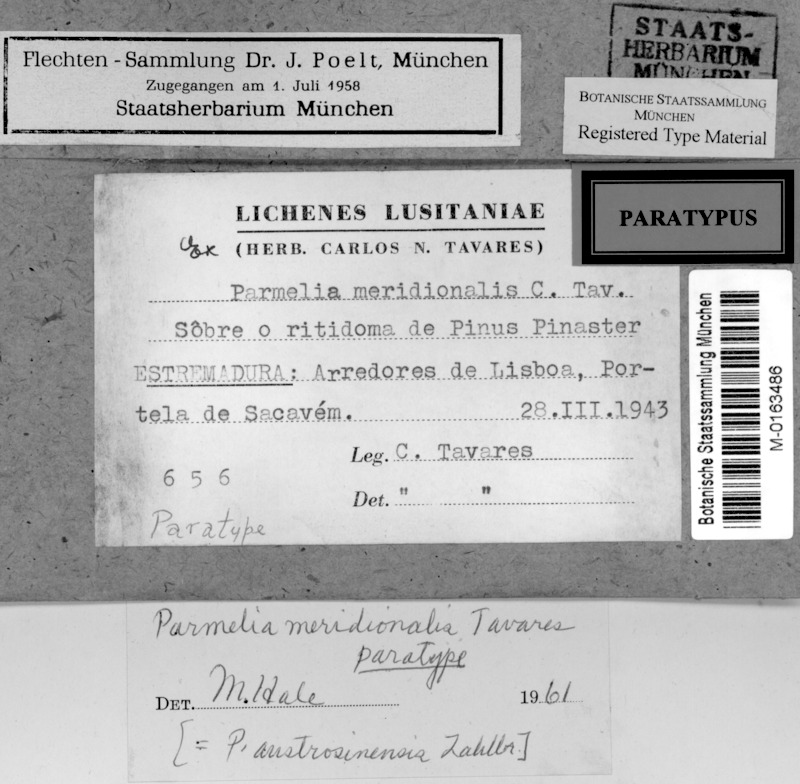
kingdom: Fungi
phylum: Ascomycota
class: Lecanoromycetes
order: Lecanorales
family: Parmeliaceae
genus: Parmotrema
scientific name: Parmotrema austrosinense
